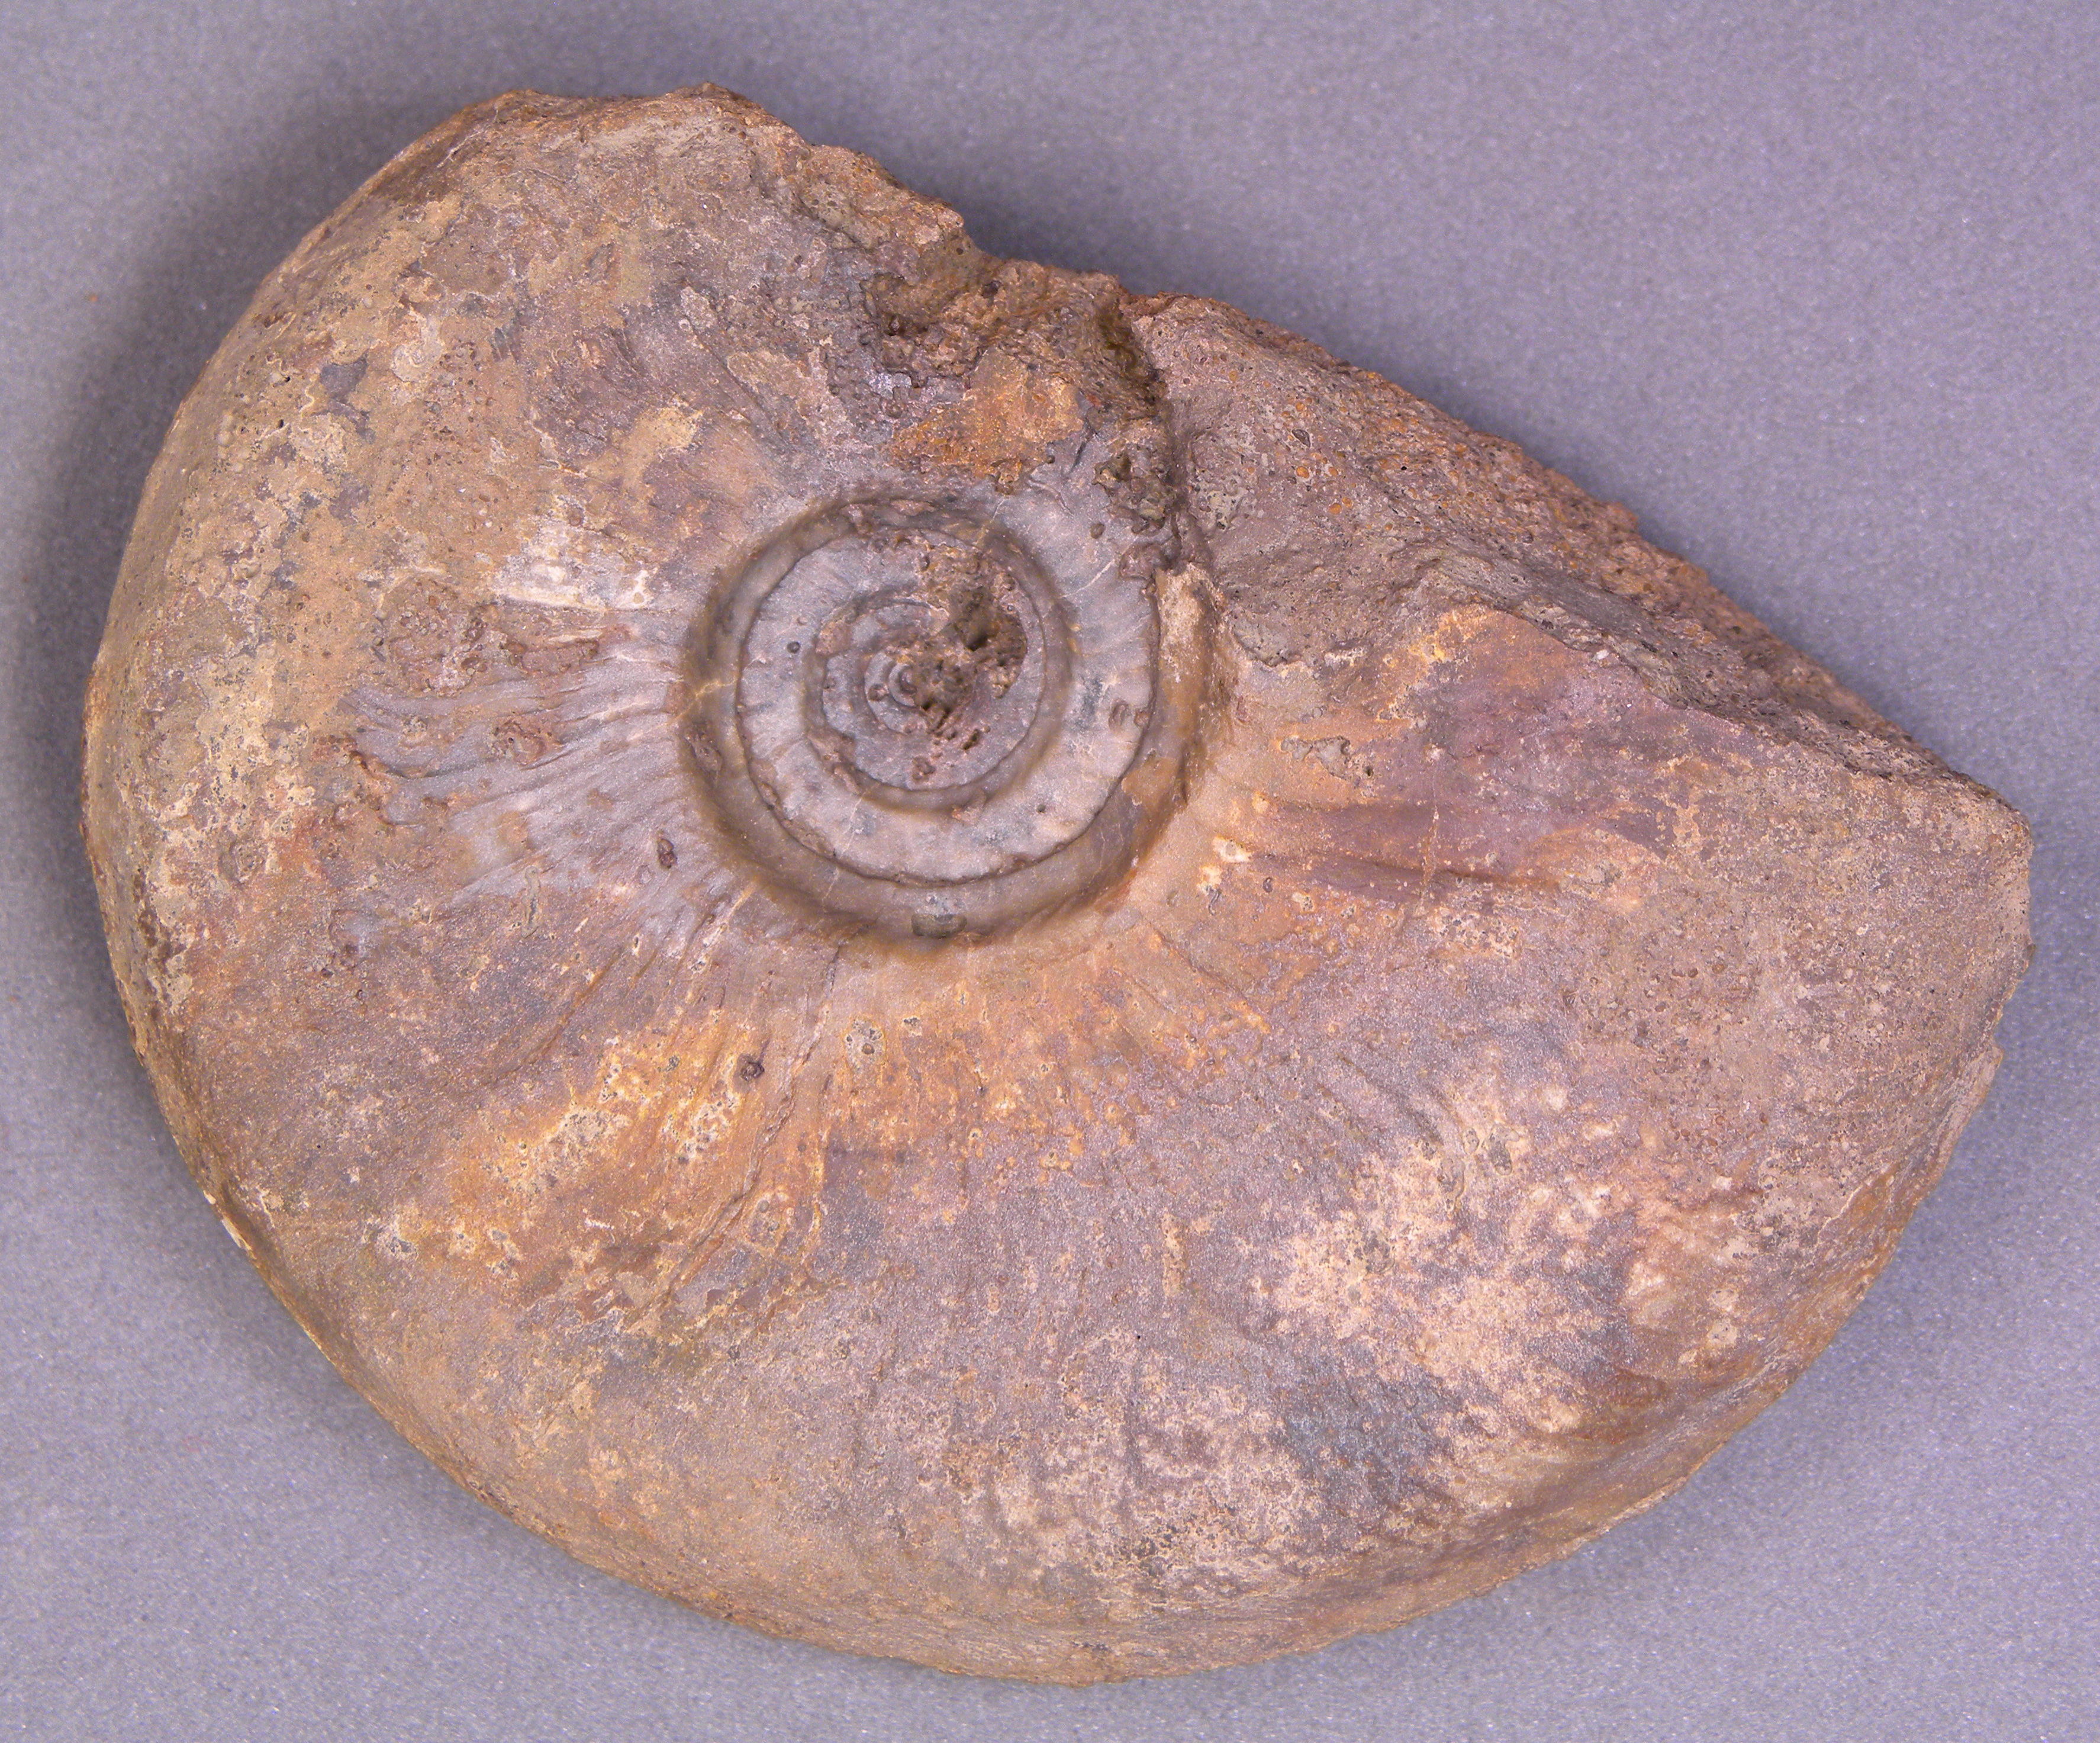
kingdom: Animalia
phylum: Mollusca
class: Cephalopoda
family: Graphoceratidae
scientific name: Graphoceratidae
